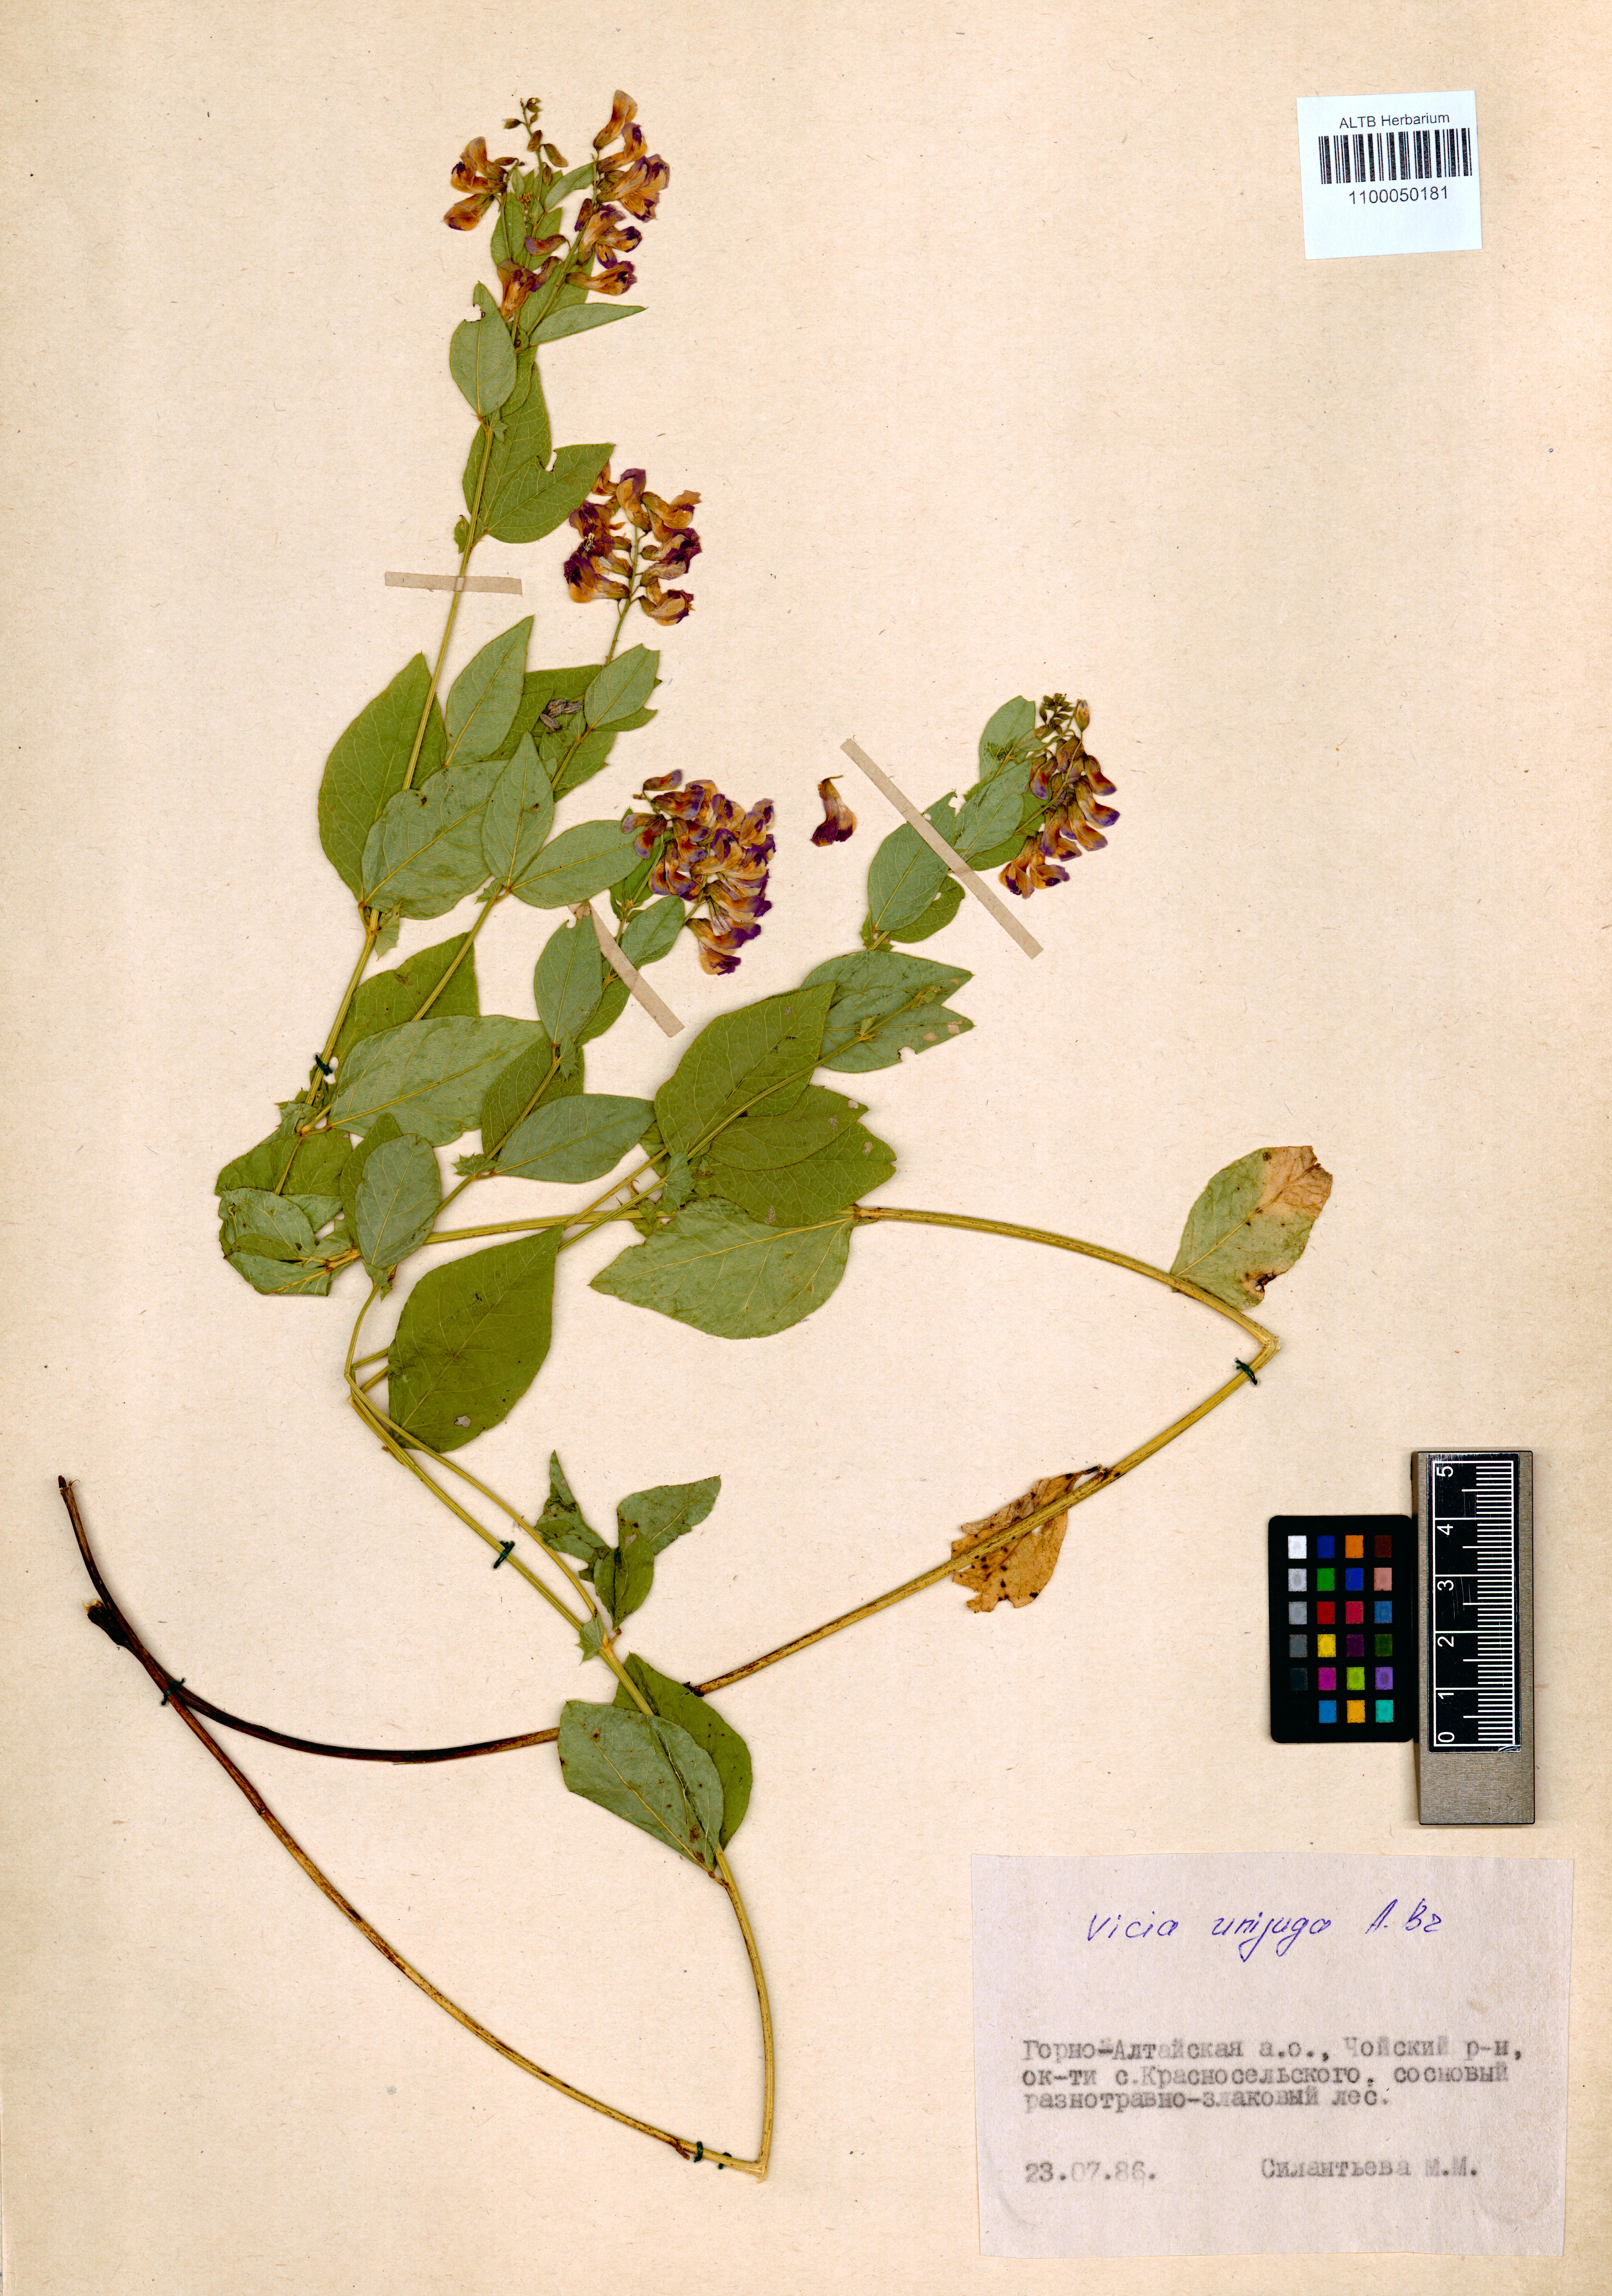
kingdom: Plantae
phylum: Tracheophyta
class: Magnoliopsida
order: Fabales
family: Fabaceae
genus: Vicia
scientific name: Vicia unijuga
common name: Two-leaf vetch
